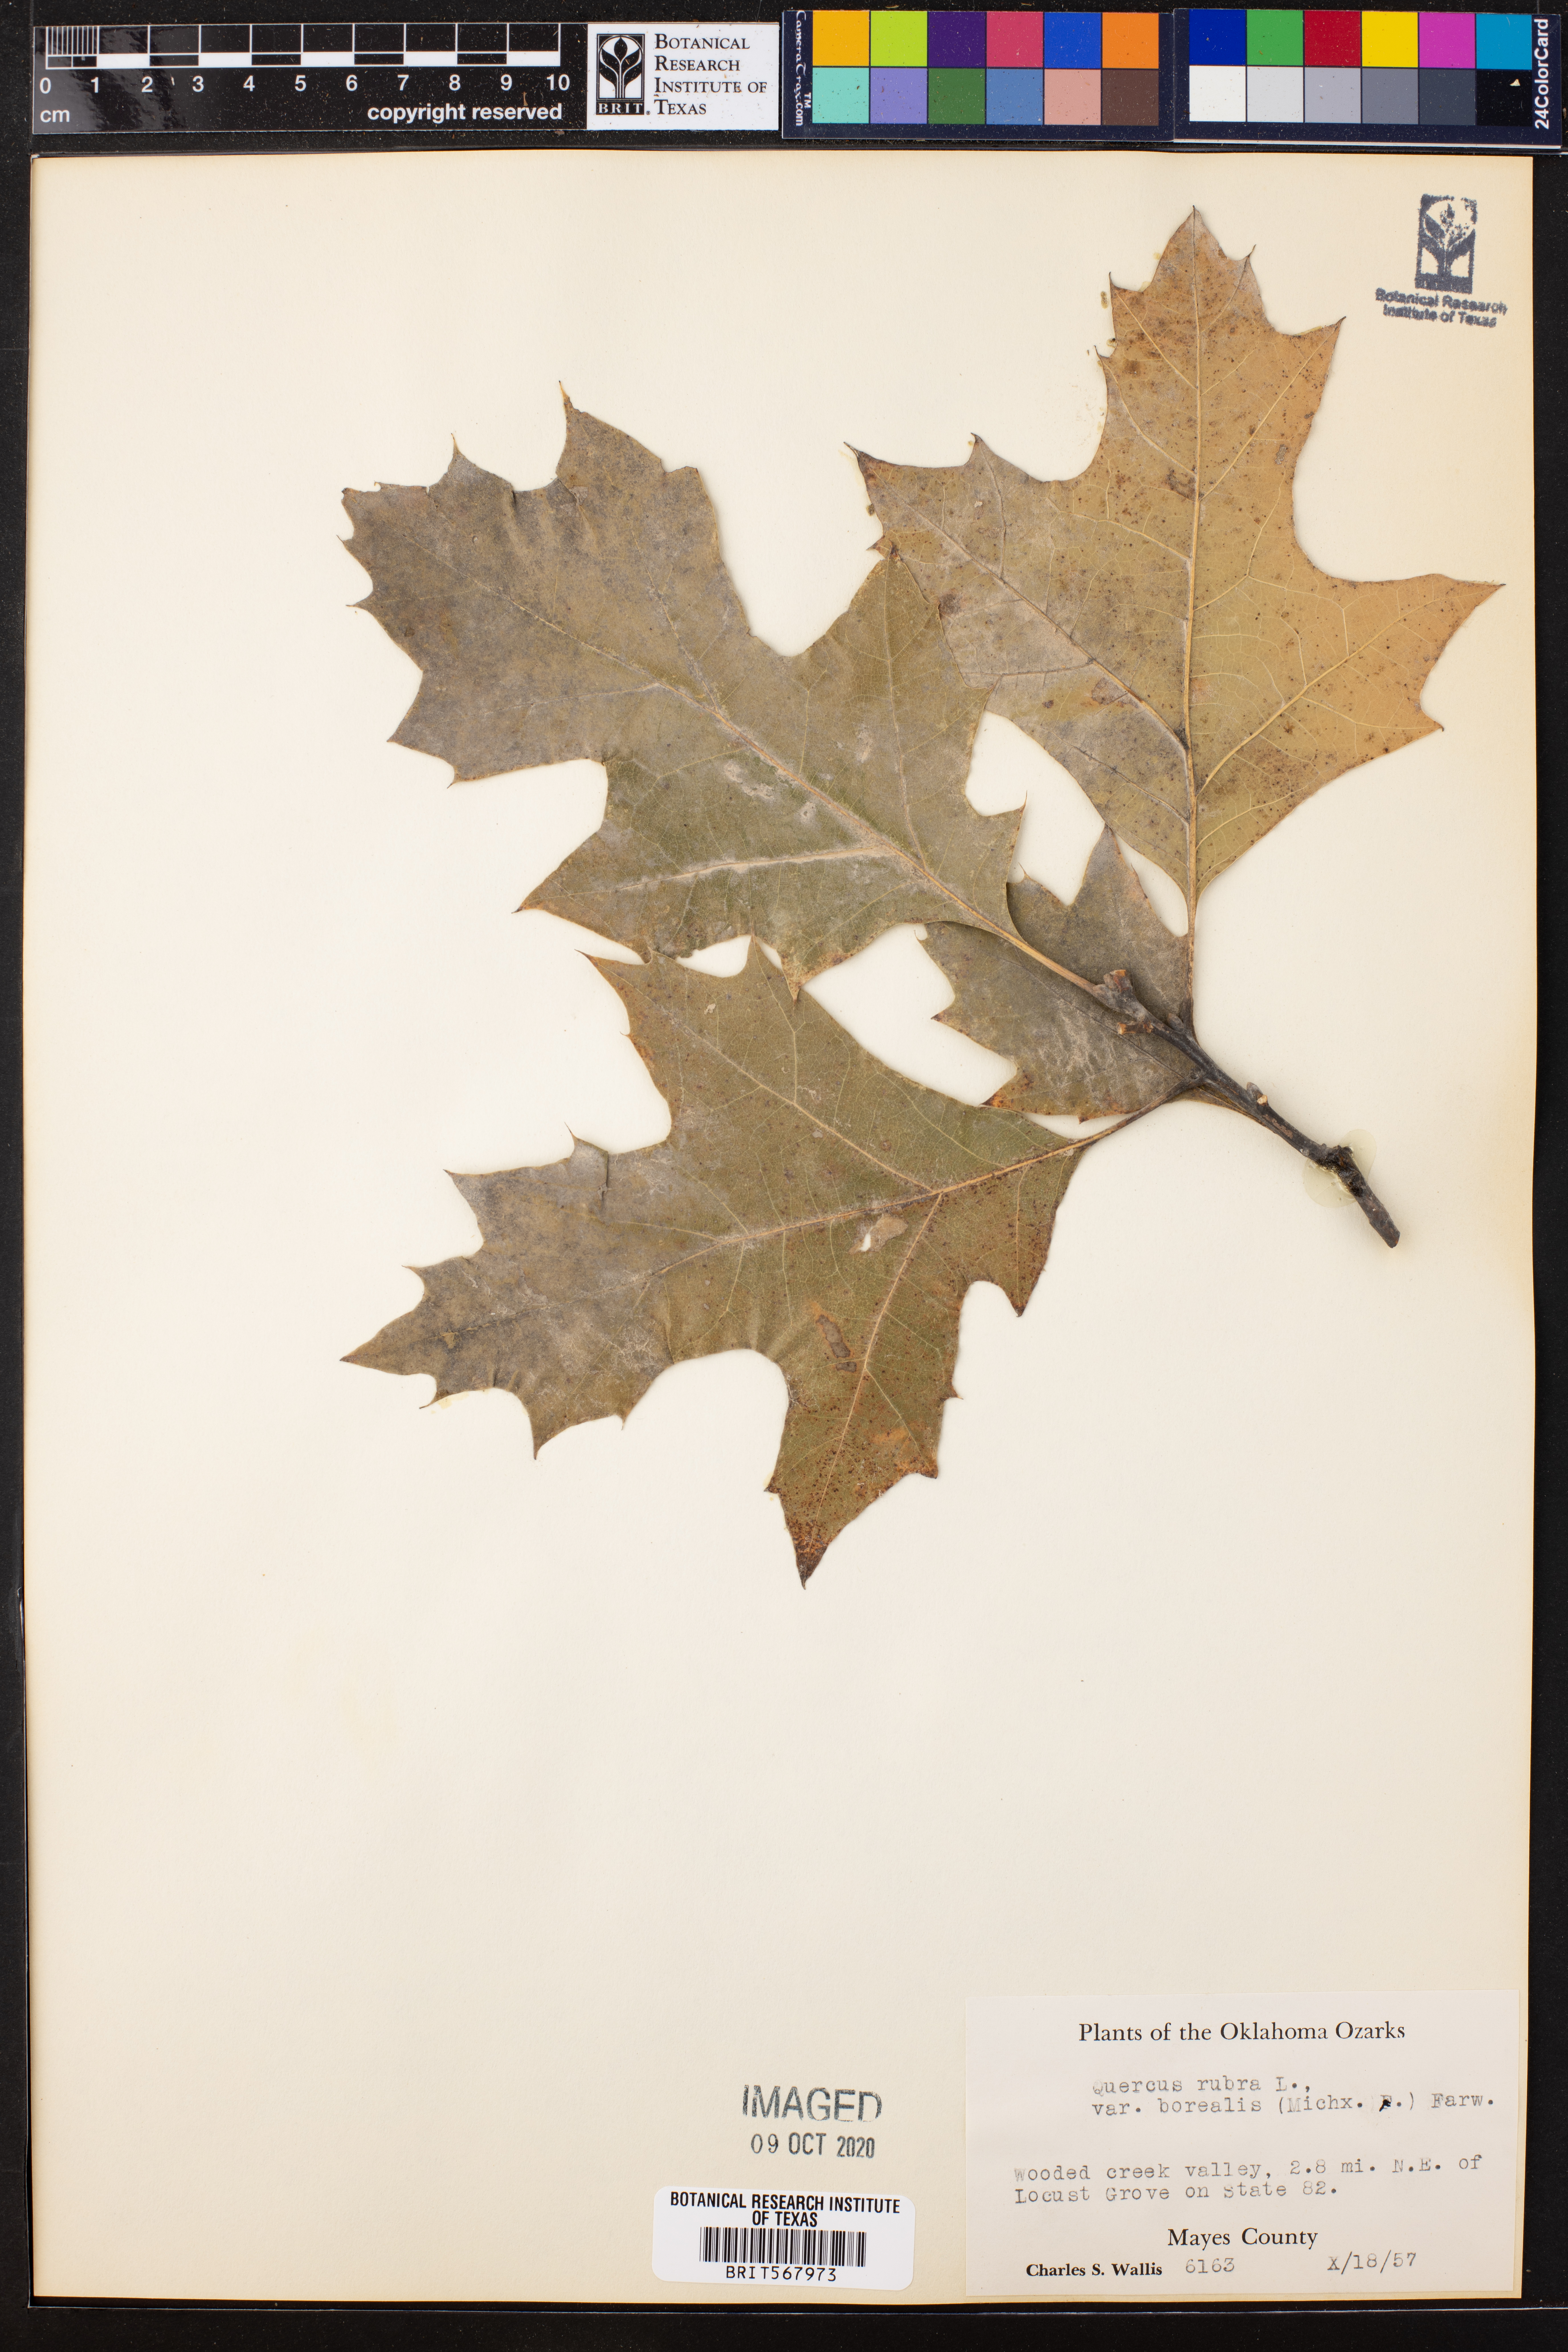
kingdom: Plantae
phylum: Tracheophyta
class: Magnoliopsida
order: Fagales
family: Fagaceae
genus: Quercus
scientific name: Quercus rubra
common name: Red oak
